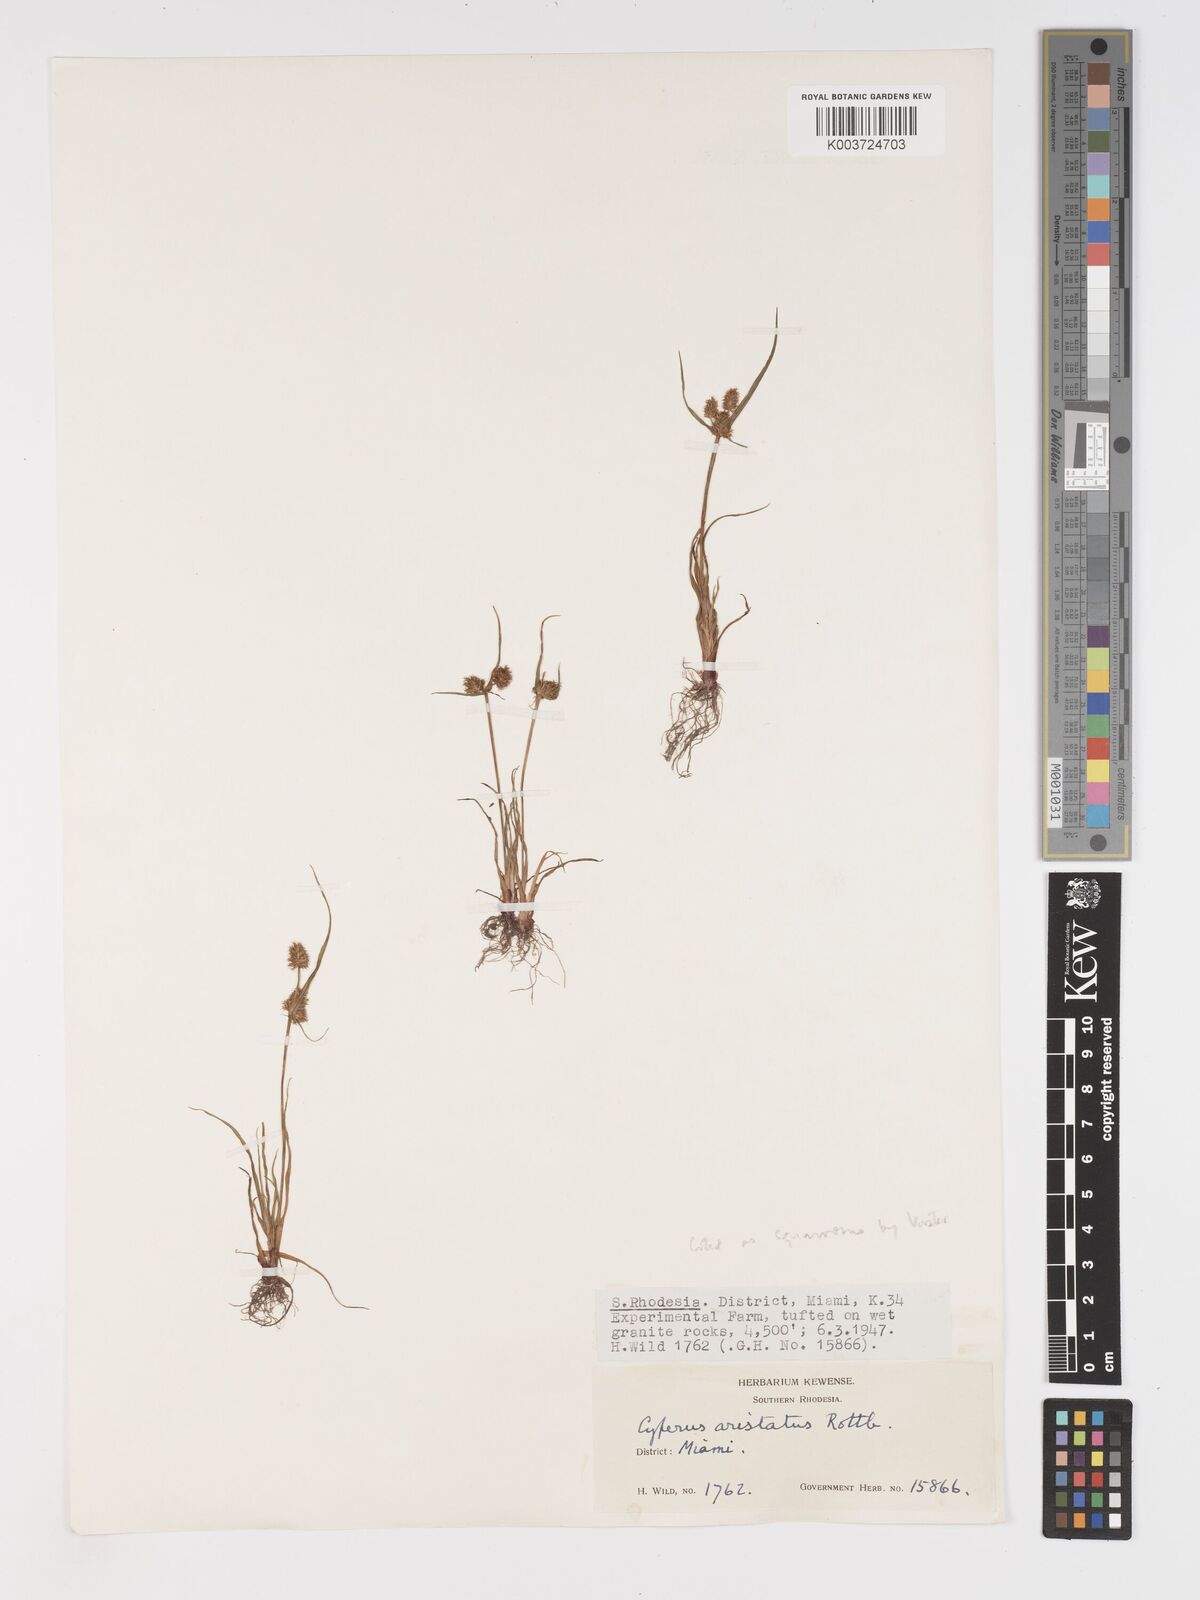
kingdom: Plantae
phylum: Tracheophyta
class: Liliopsida
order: Poales
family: Cyperaceae
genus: Cyperus
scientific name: Cyperus squarrosus
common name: Awned cyperus
